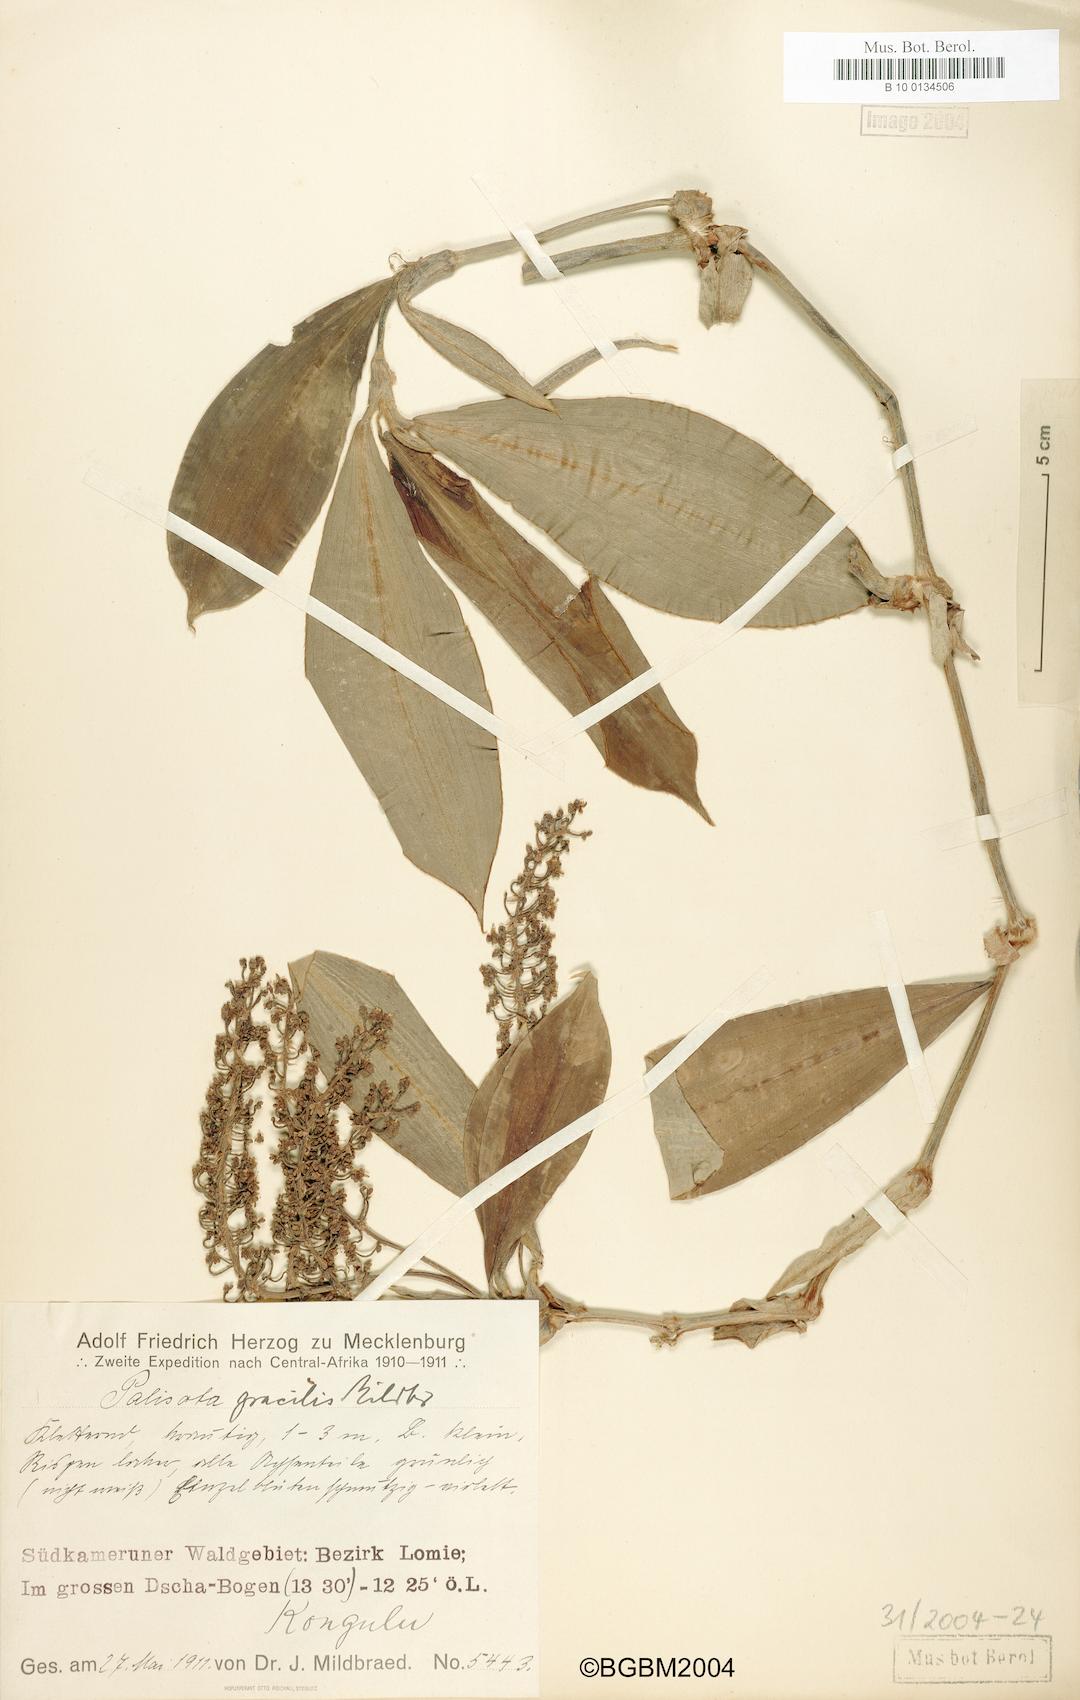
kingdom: Plantae
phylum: Tracheophyta
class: Liliopsida
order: Commelinales
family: Commelinaceae
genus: Palisota
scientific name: Palisota gracilior
